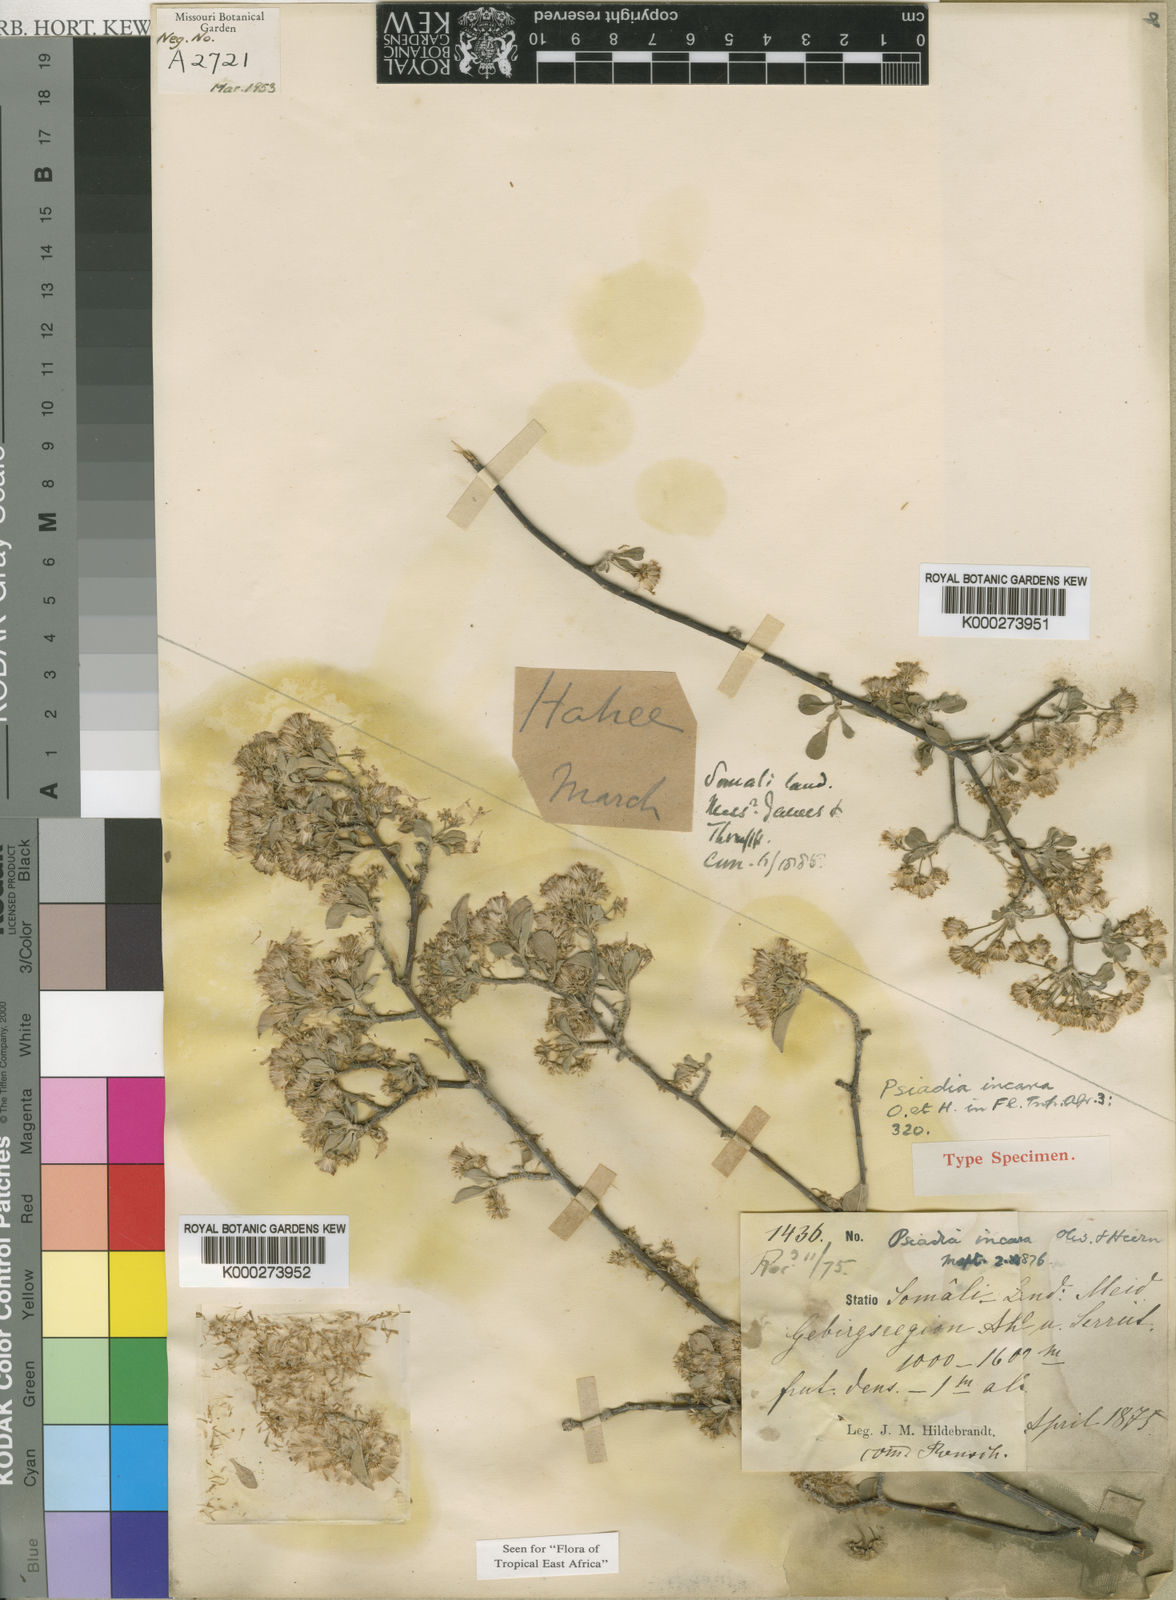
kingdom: Plantae
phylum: Tracheophyta
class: Magnoliopsida
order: Asterales
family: Asteraceae
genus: Psiadia
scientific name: Psiadia incana
